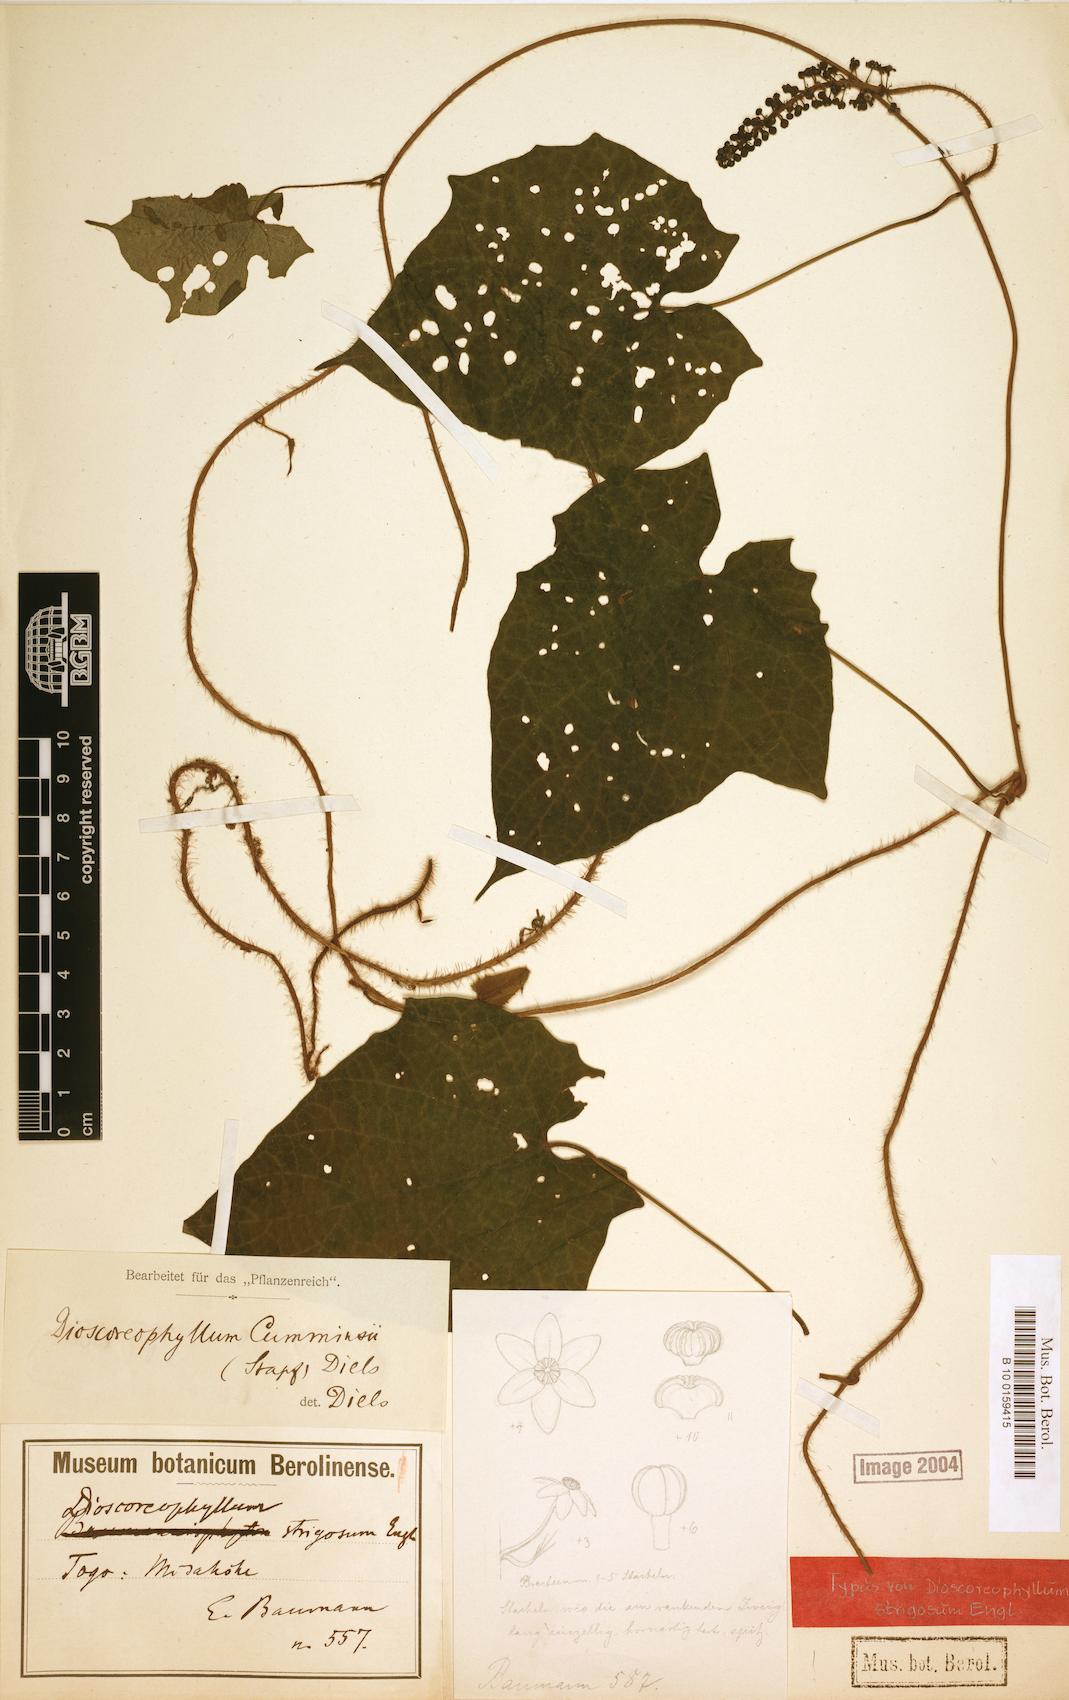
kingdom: Plantae
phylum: Tracheophyta
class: Magnoliopsida
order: Ranunculales
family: Menispermaceae
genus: Dioscoreophyllum
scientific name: Dioscoreophyllum volkensii
